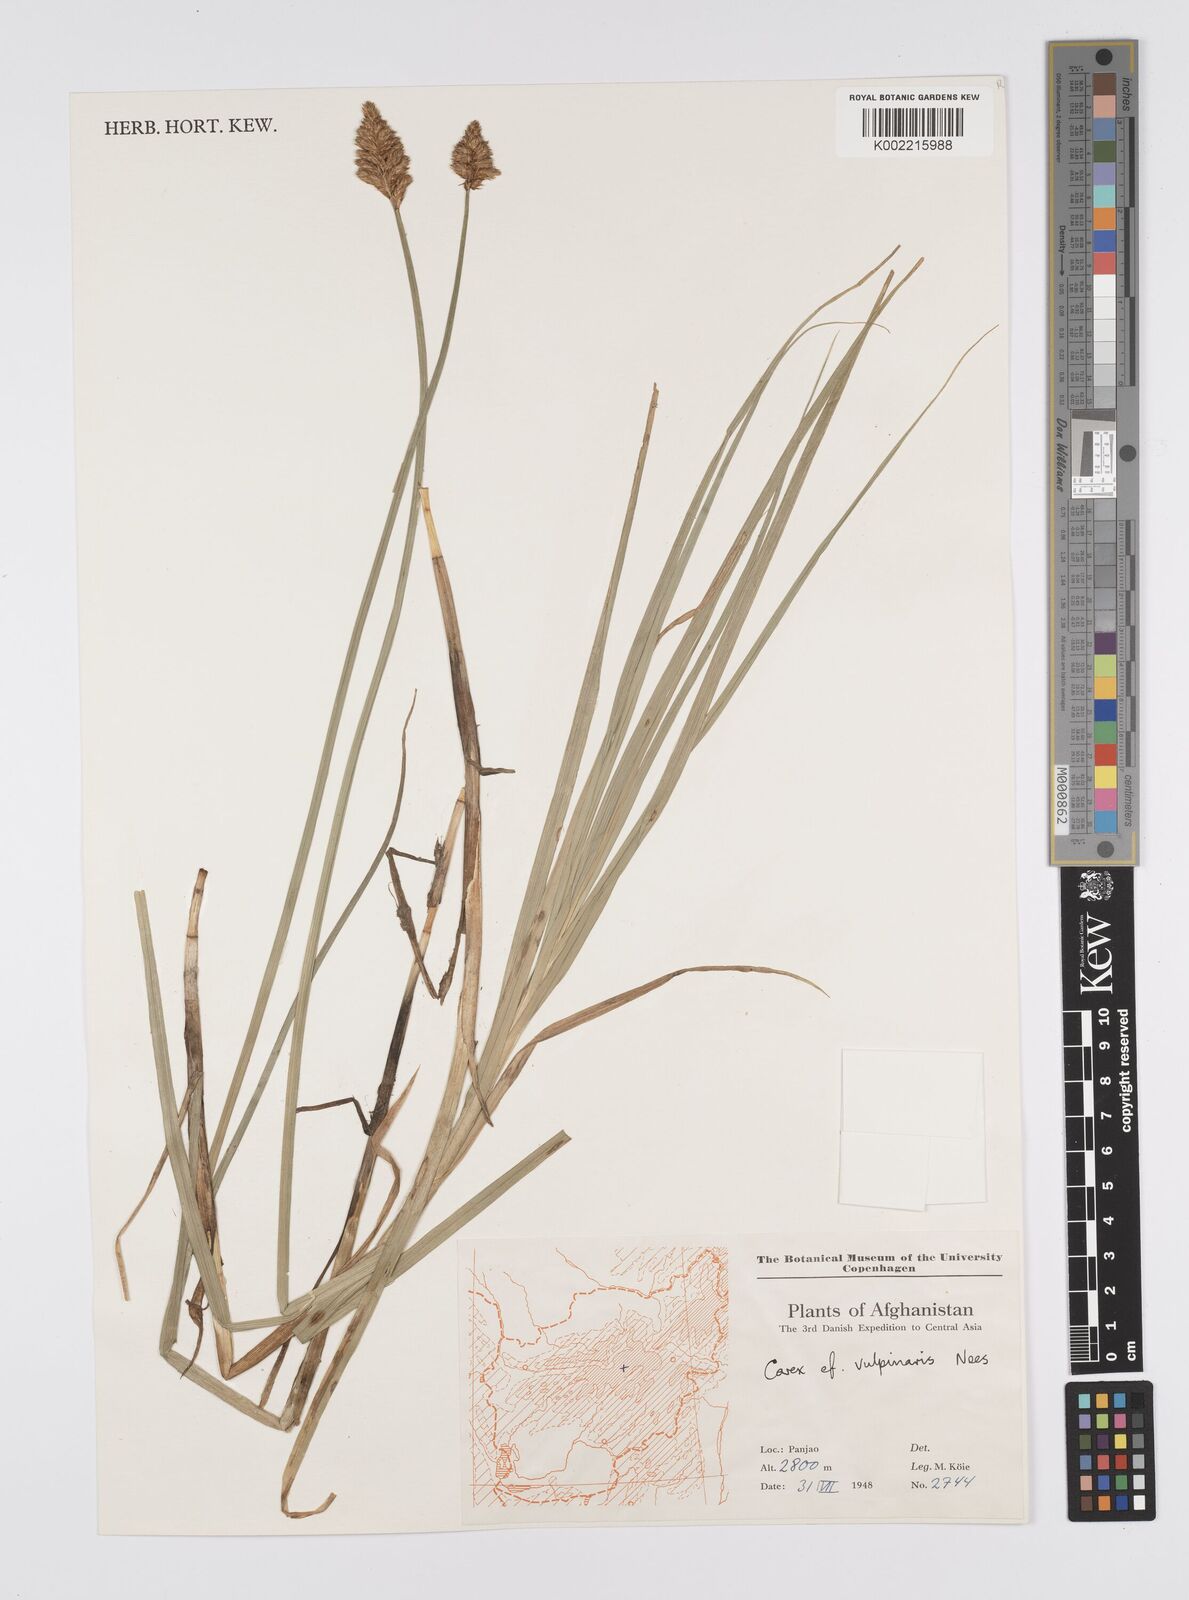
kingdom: Plantae
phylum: Tracheophyta
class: Liliopsida
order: Poales
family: Cyperaceae
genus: Carex
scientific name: Carex vulpinaris
